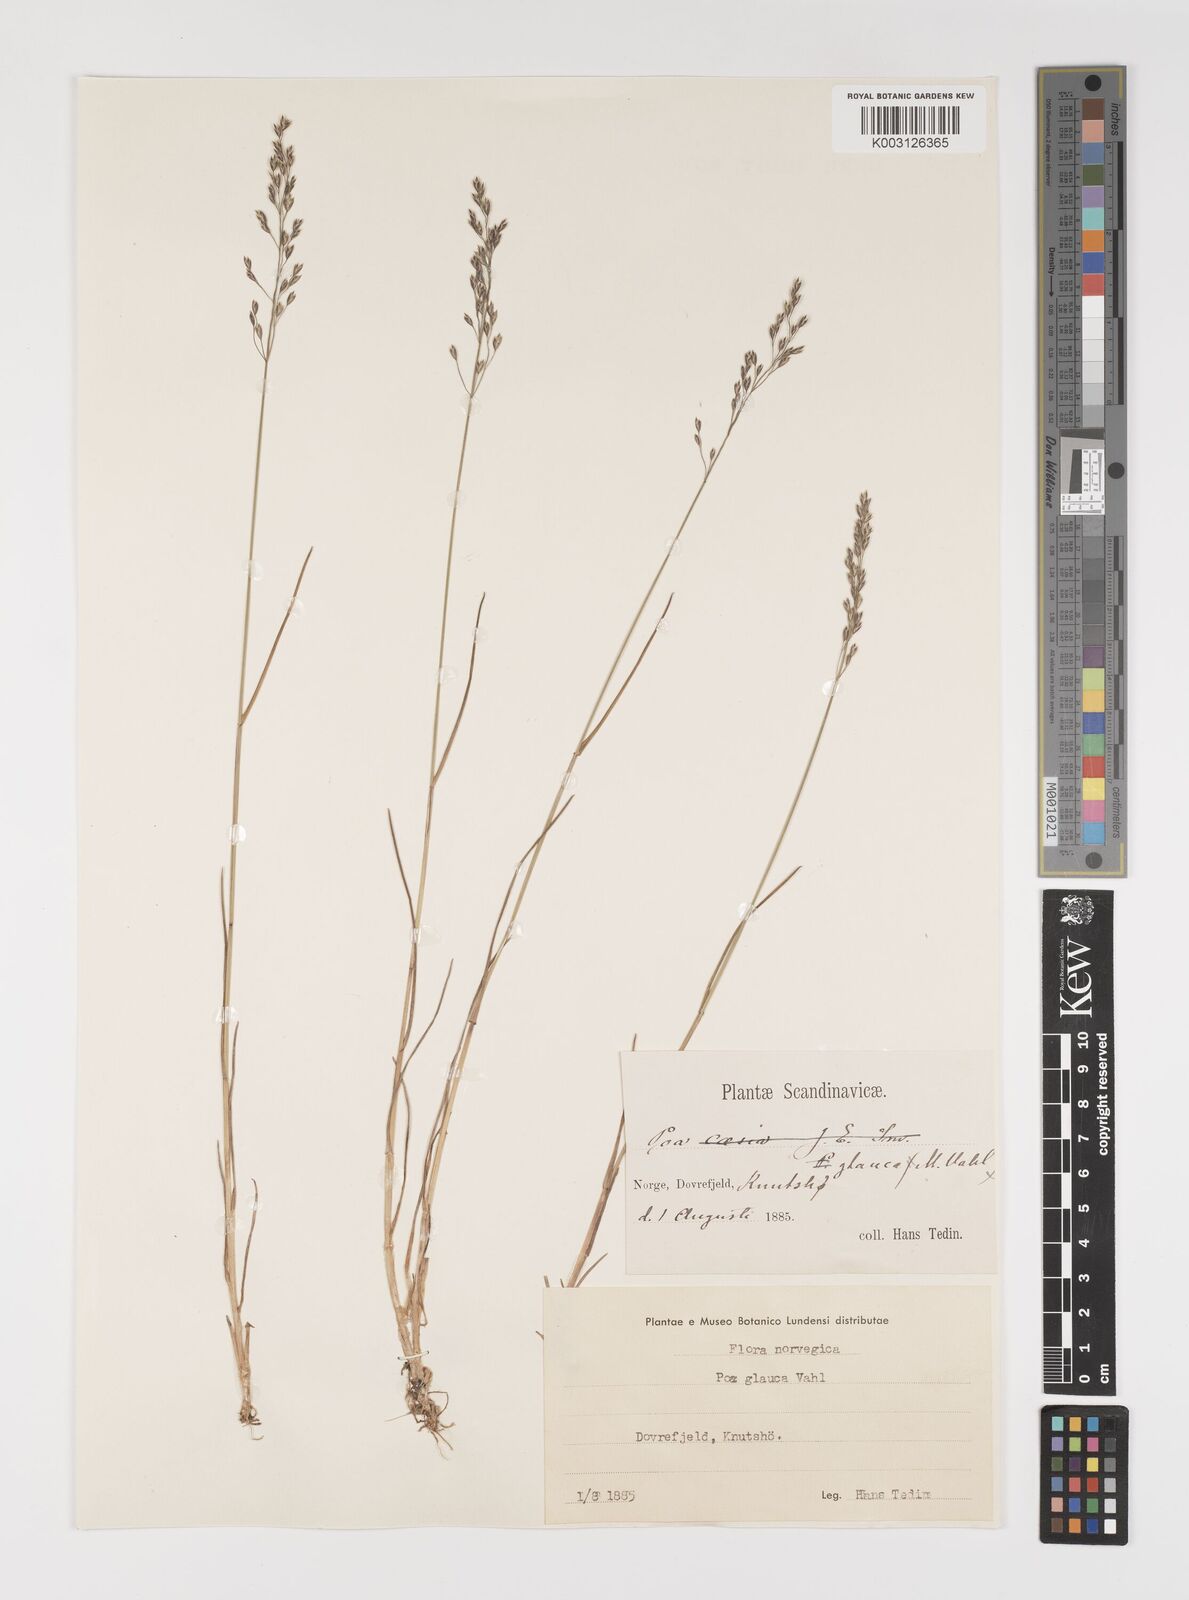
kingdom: Plantae
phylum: Tracheophyta
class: Liliopsida
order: Poales
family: Poaceae
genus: Poa
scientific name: Poa glauca
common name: Glaucous bluegrass
